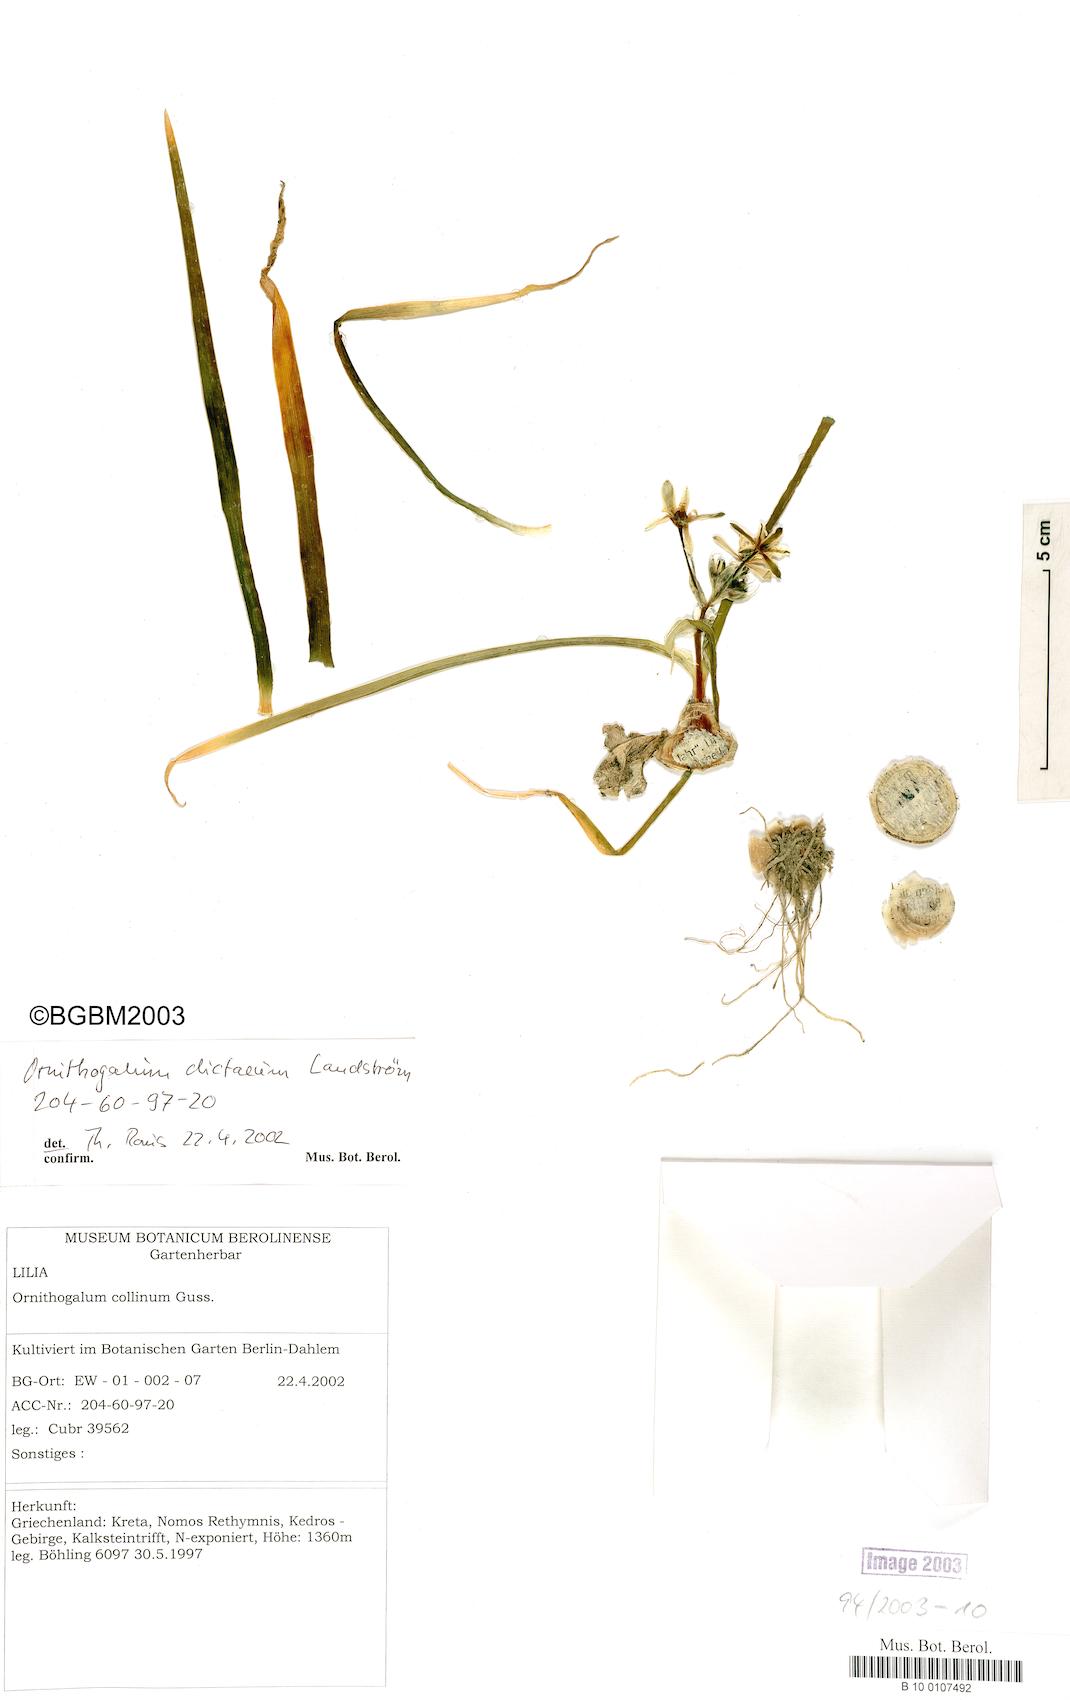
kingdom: Plantae
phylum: Tracheophyta
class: Liliopsida
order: Asparagales
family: Asparagaceae
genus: Ornithogalum
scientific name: Ornithogalum dictaeum
